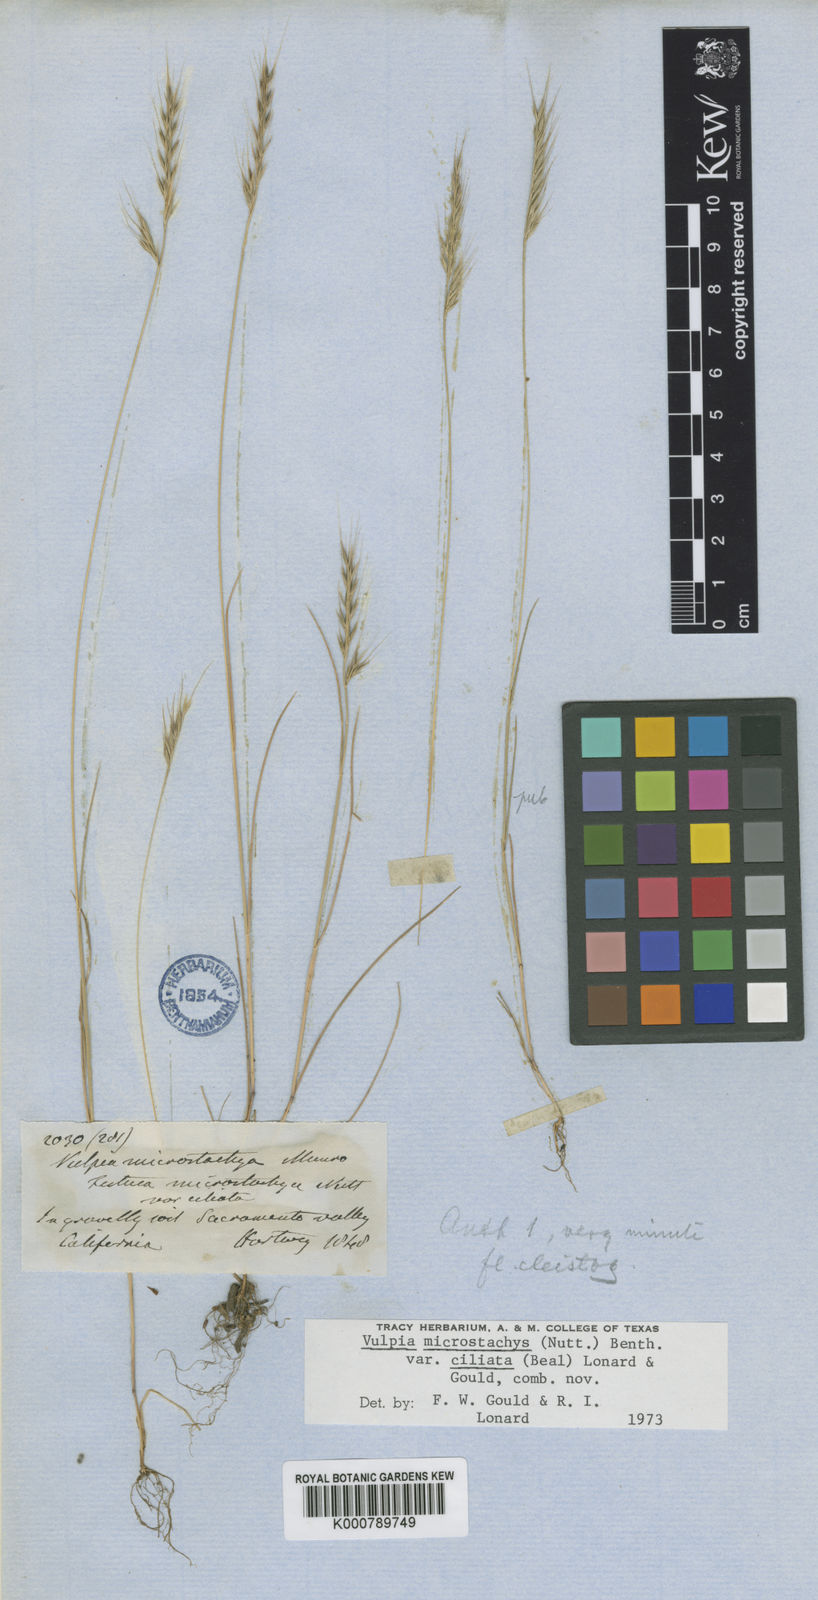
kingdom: Plantae
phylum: Tracheophyta
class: Liliopsida
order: Poales
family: Poaceae
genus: Festuca
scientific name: Festuca microstachys
